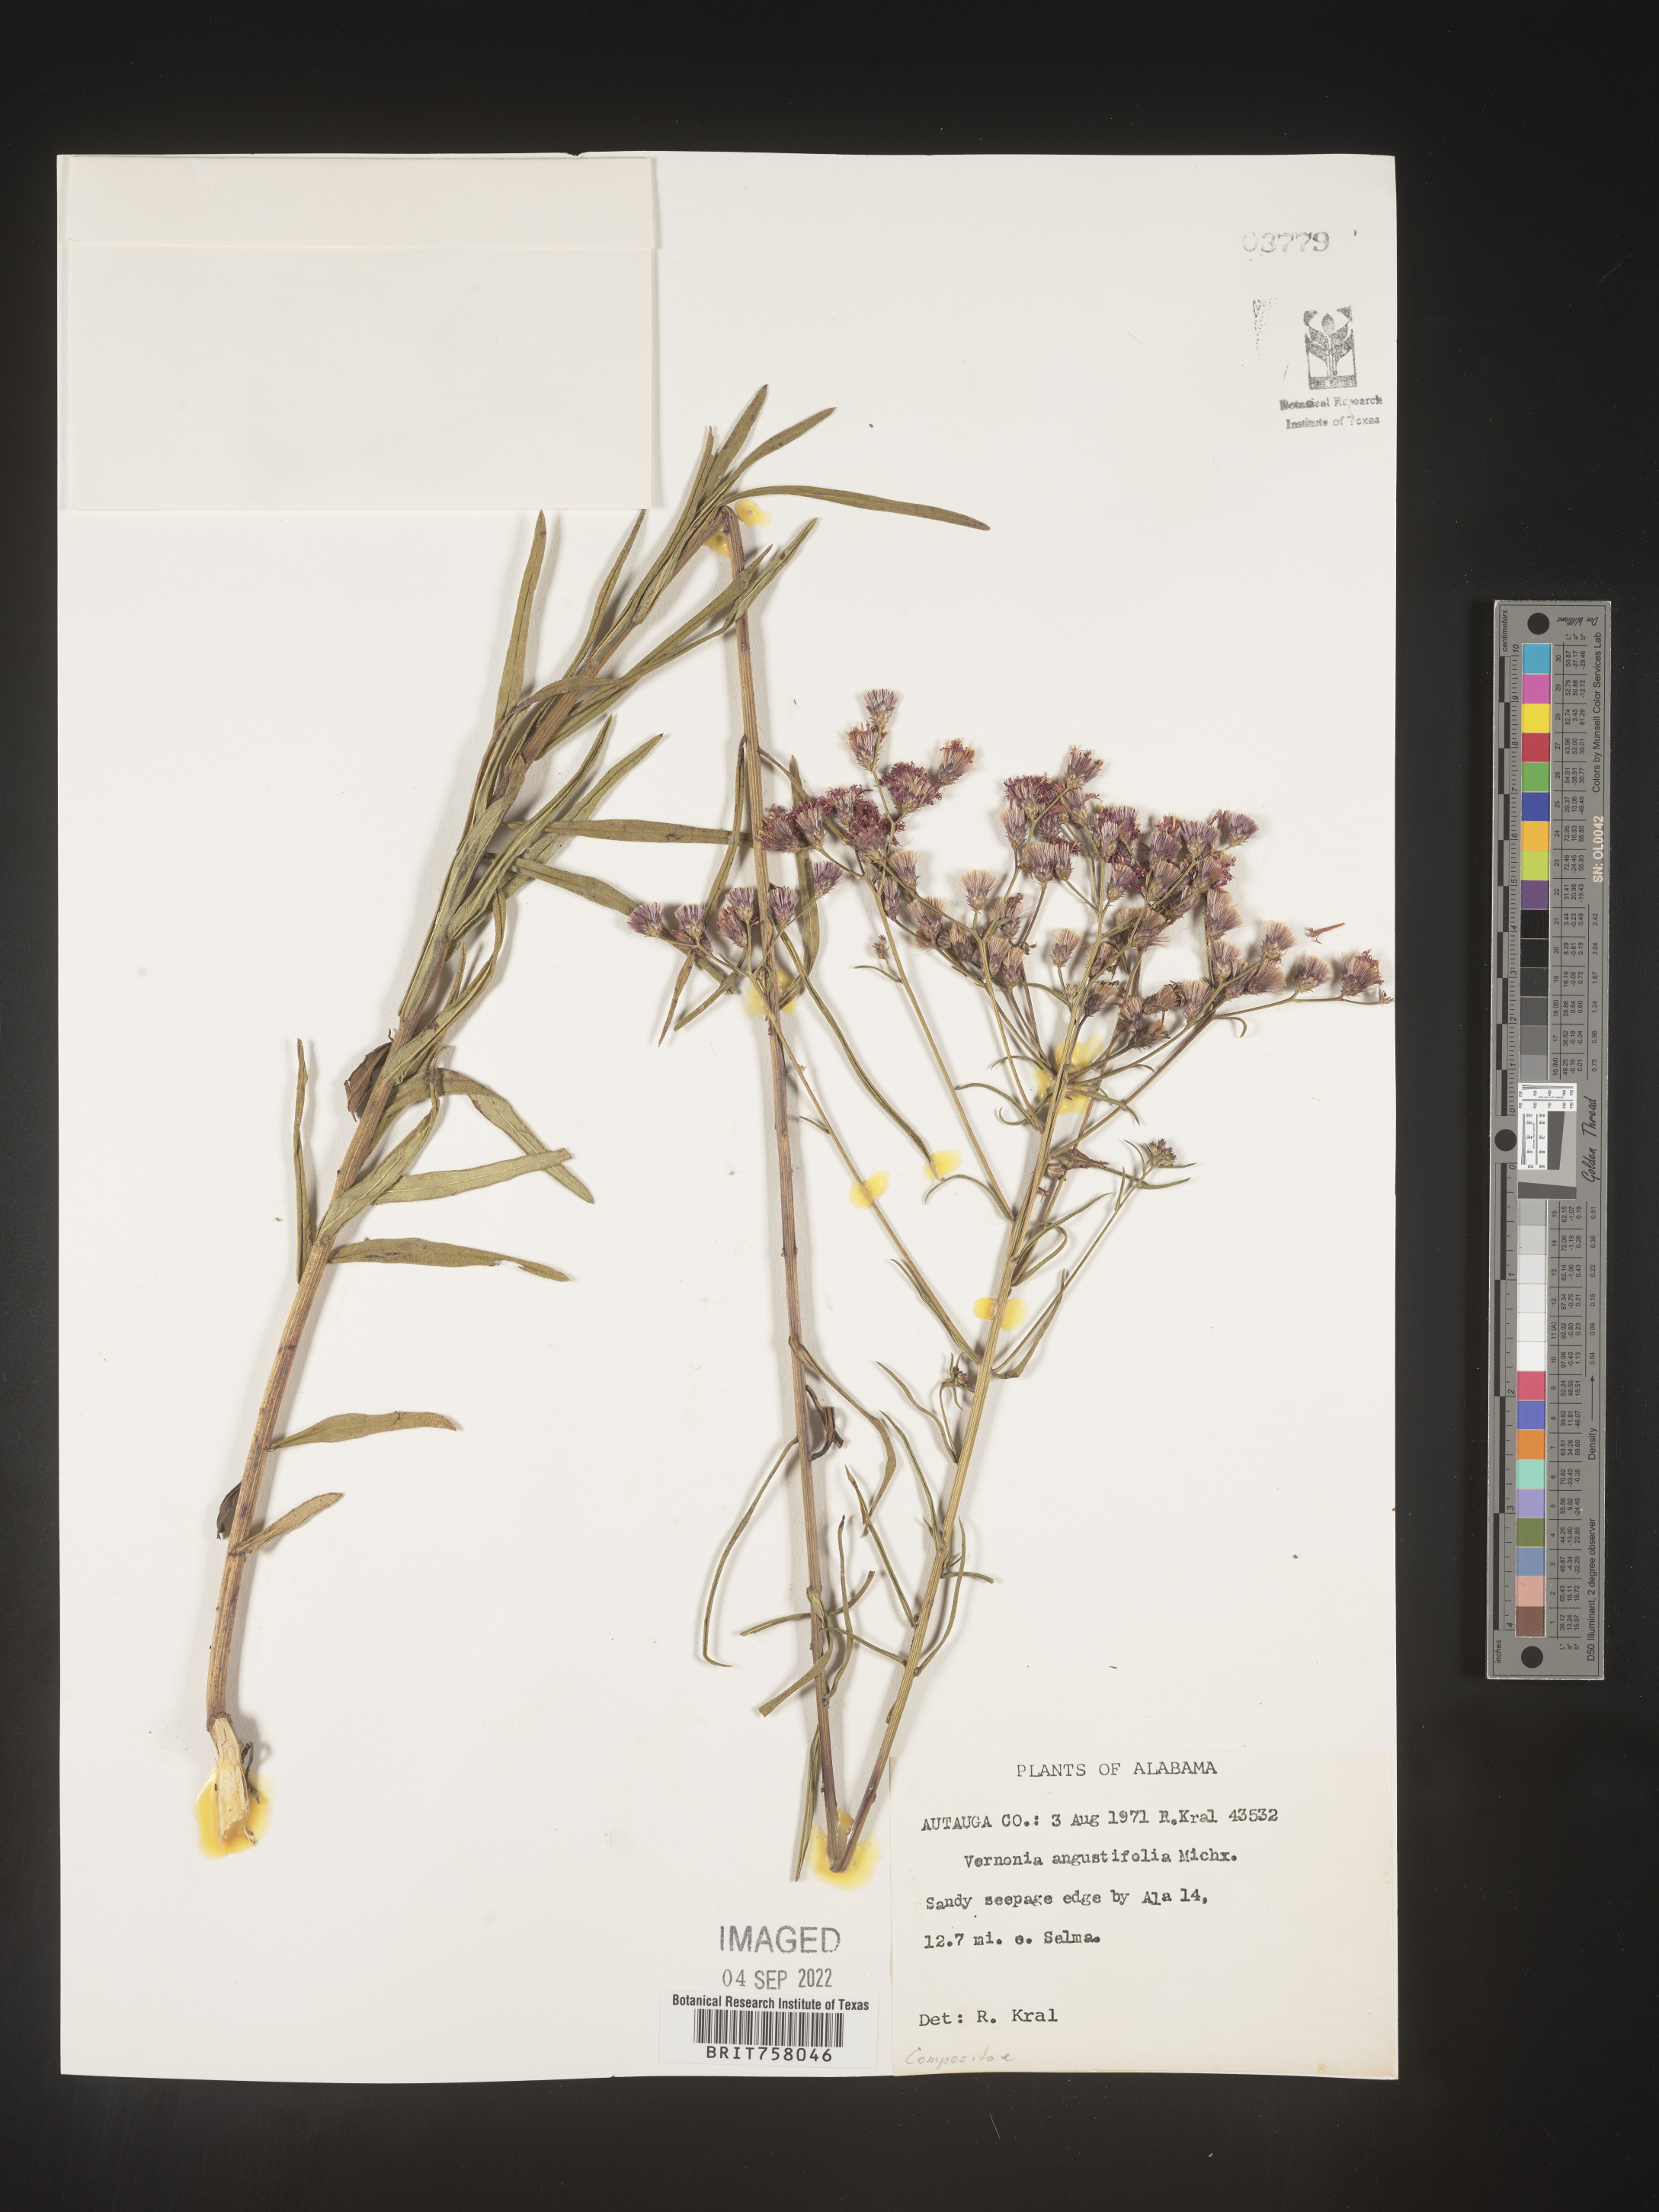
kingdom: Plantae
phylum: Tracheophyta
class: Magnoliopsida
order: Asterales
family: Asteraceae
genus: Vernonia
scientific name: Vernonia angustifolia
